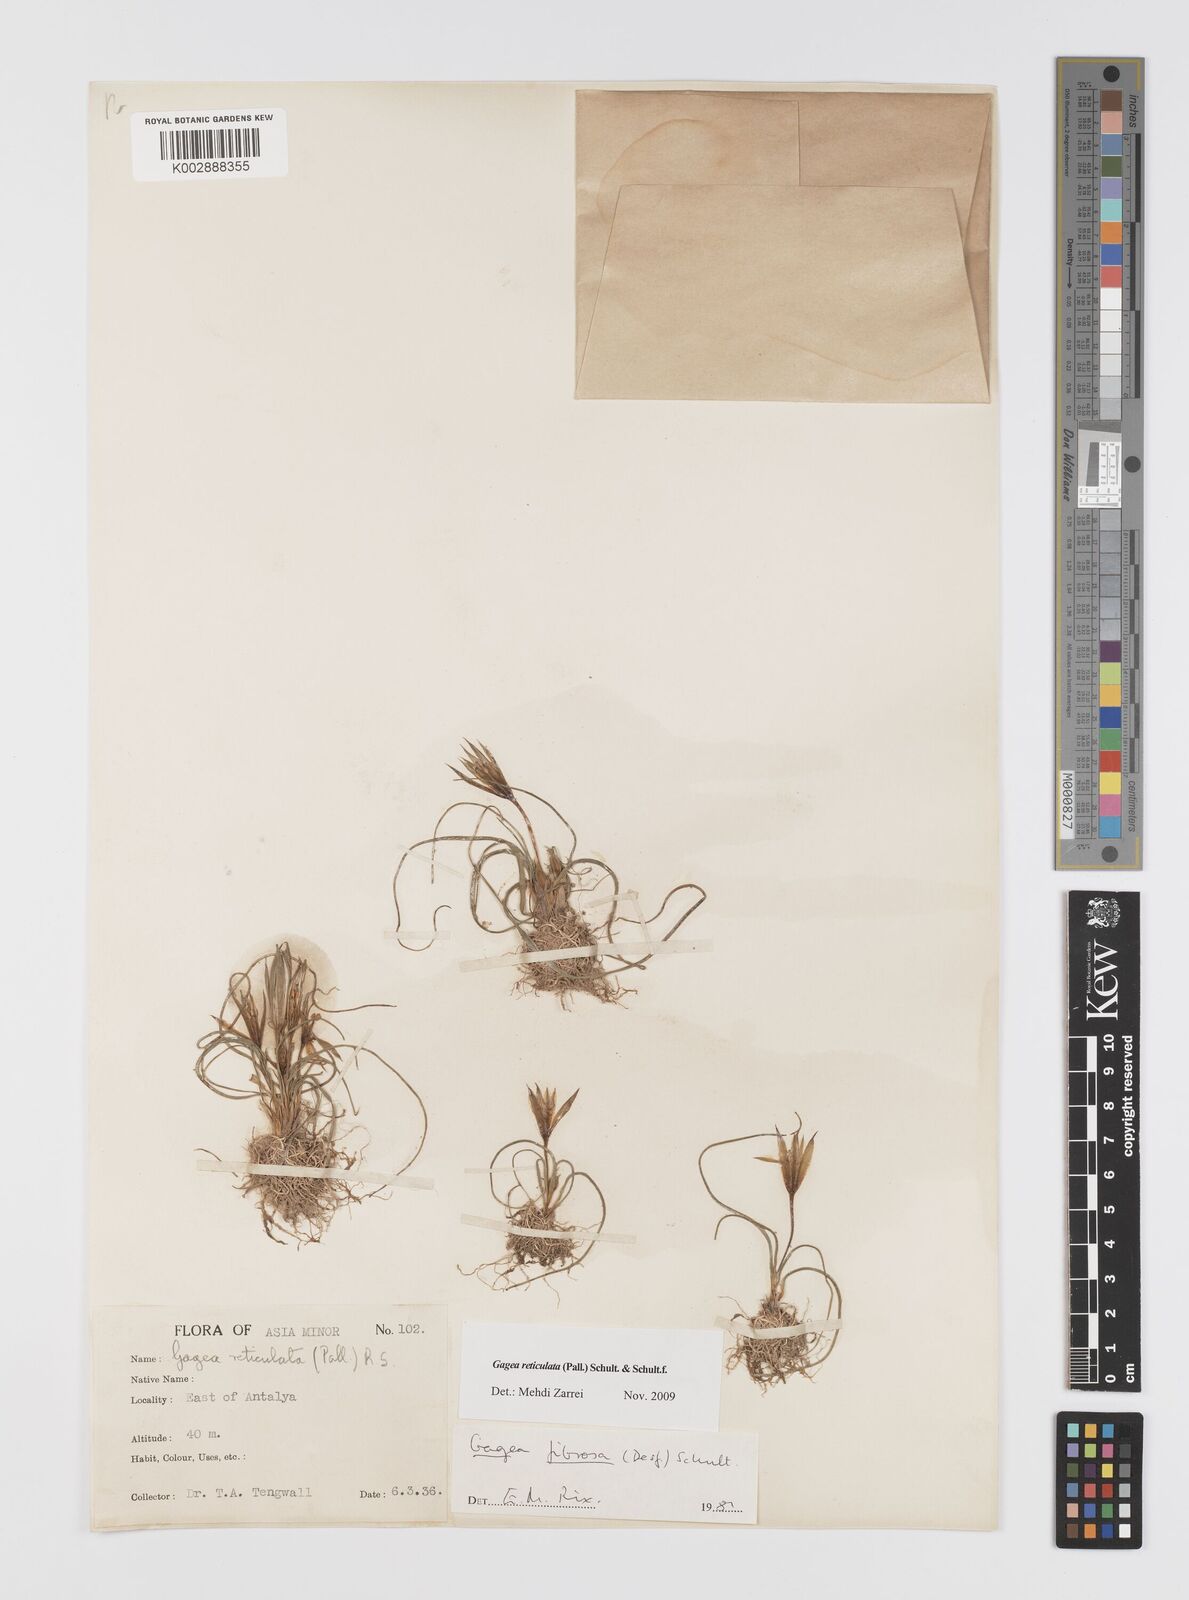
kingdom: Plantae
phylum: Tracheophyta
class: Liliopsida
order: Liliales
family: Liliaceae
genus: Gagea
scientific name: Gagea reticulata
